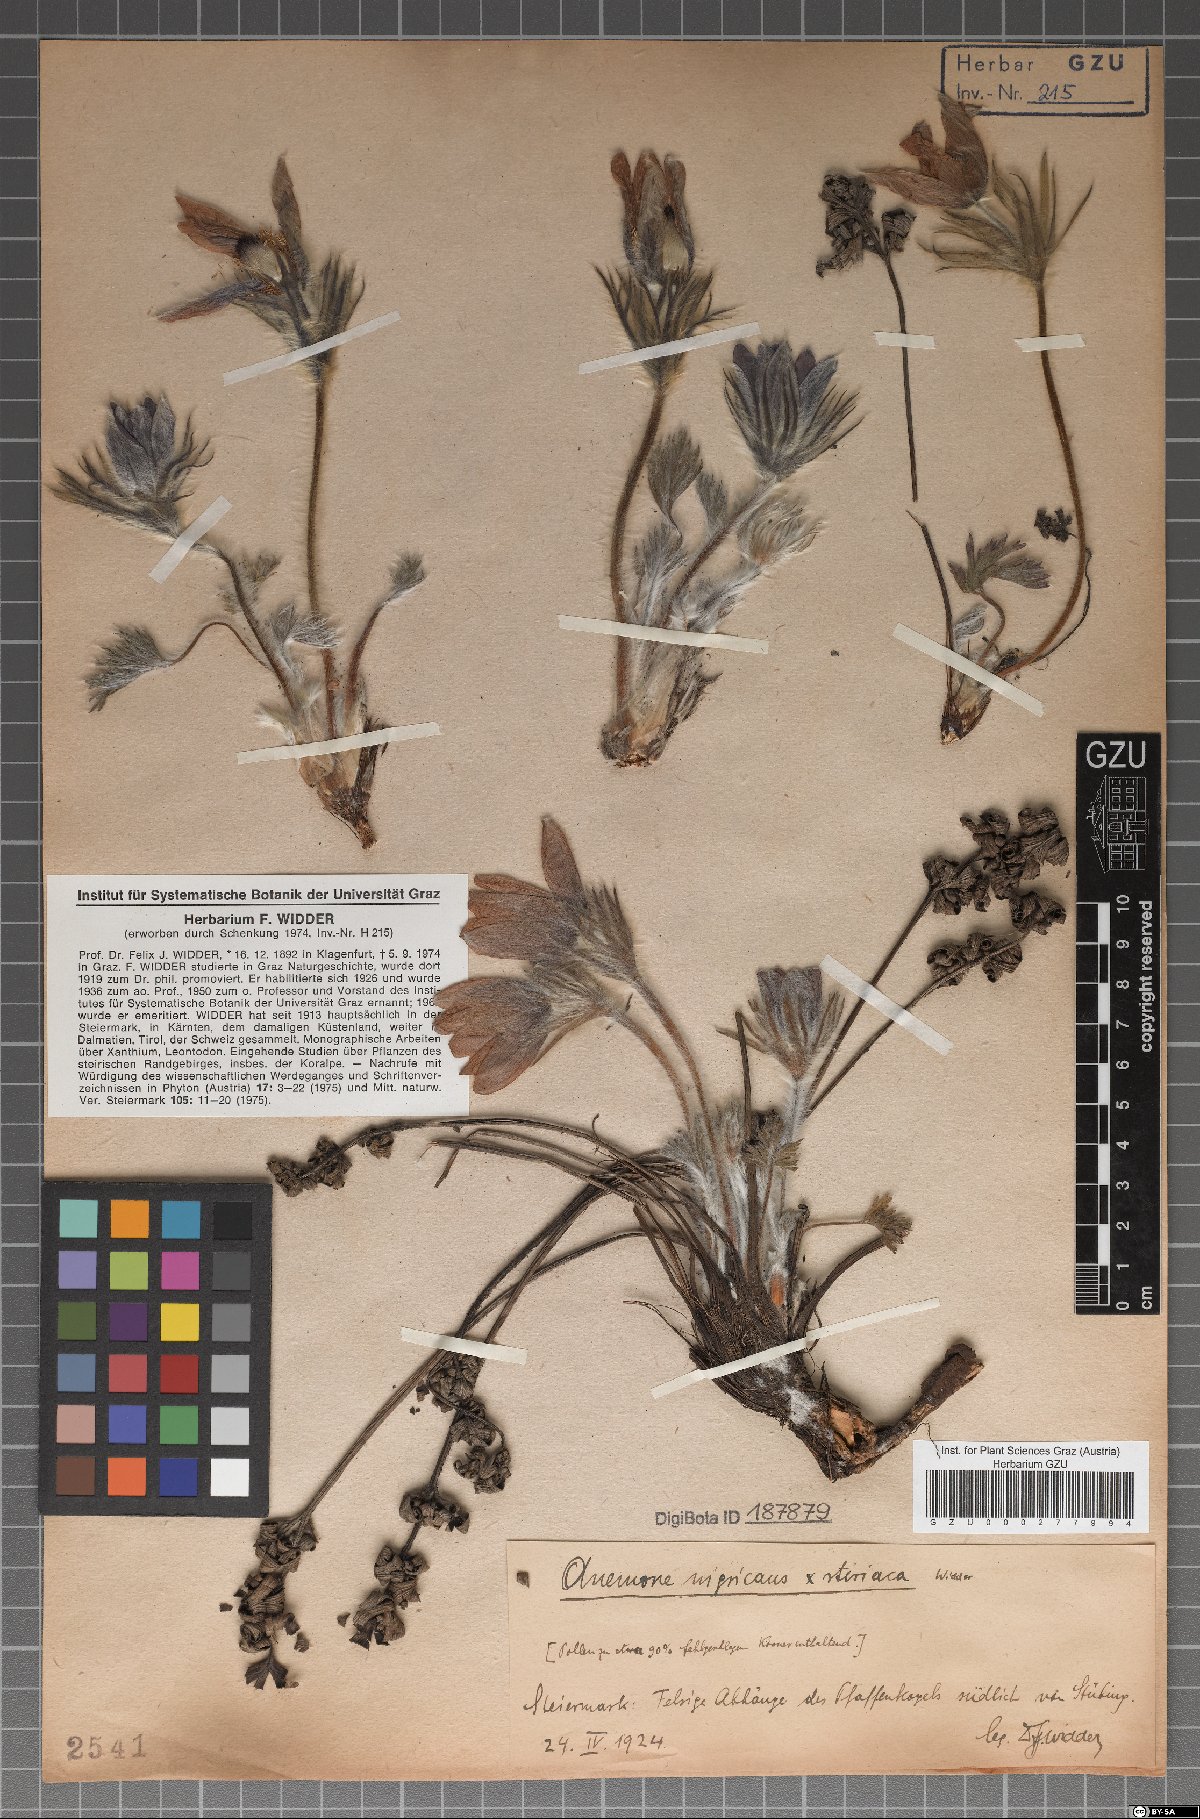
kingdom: Plantae
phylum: Tracheophyta
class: Magnoliopsida
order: Ranunculales
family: Ranunculaceae
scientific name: Ranunculaceae
